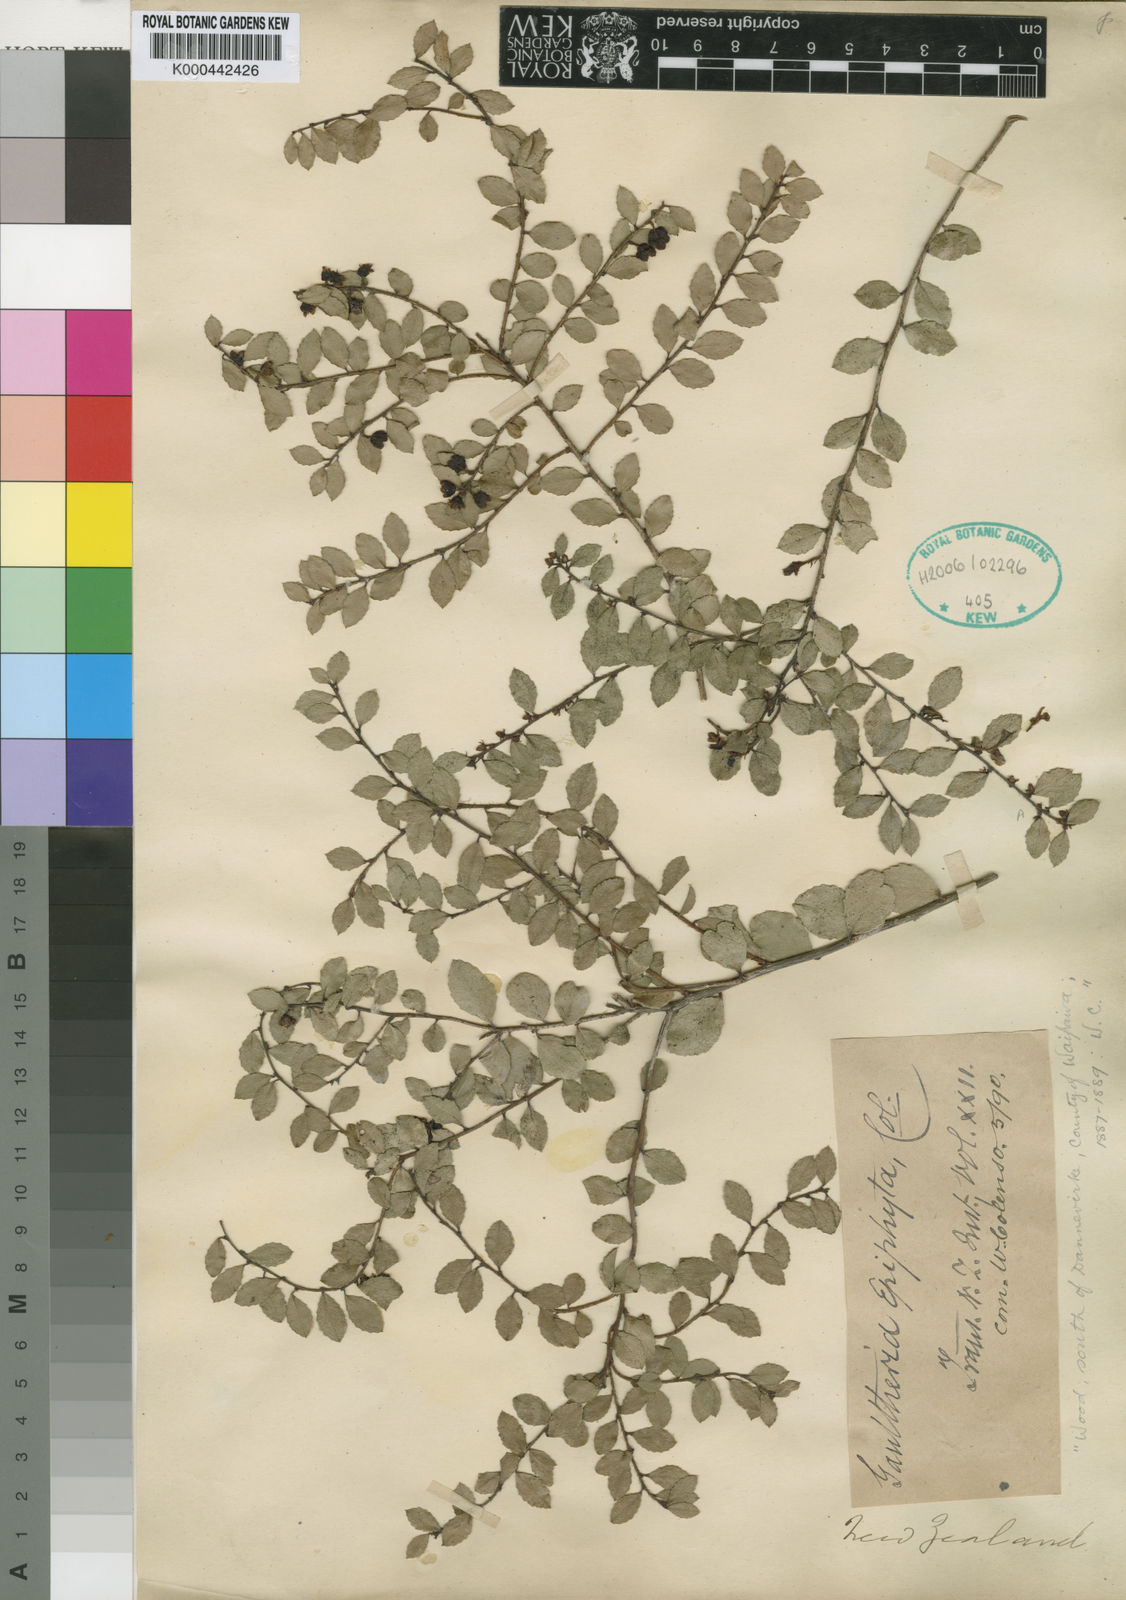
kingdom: Plantae
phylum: Tracheophyta
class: Magnoliopsida
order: Ericales
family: Ericaceae
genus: Gaultheria
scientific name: Gaultheria antipoda
